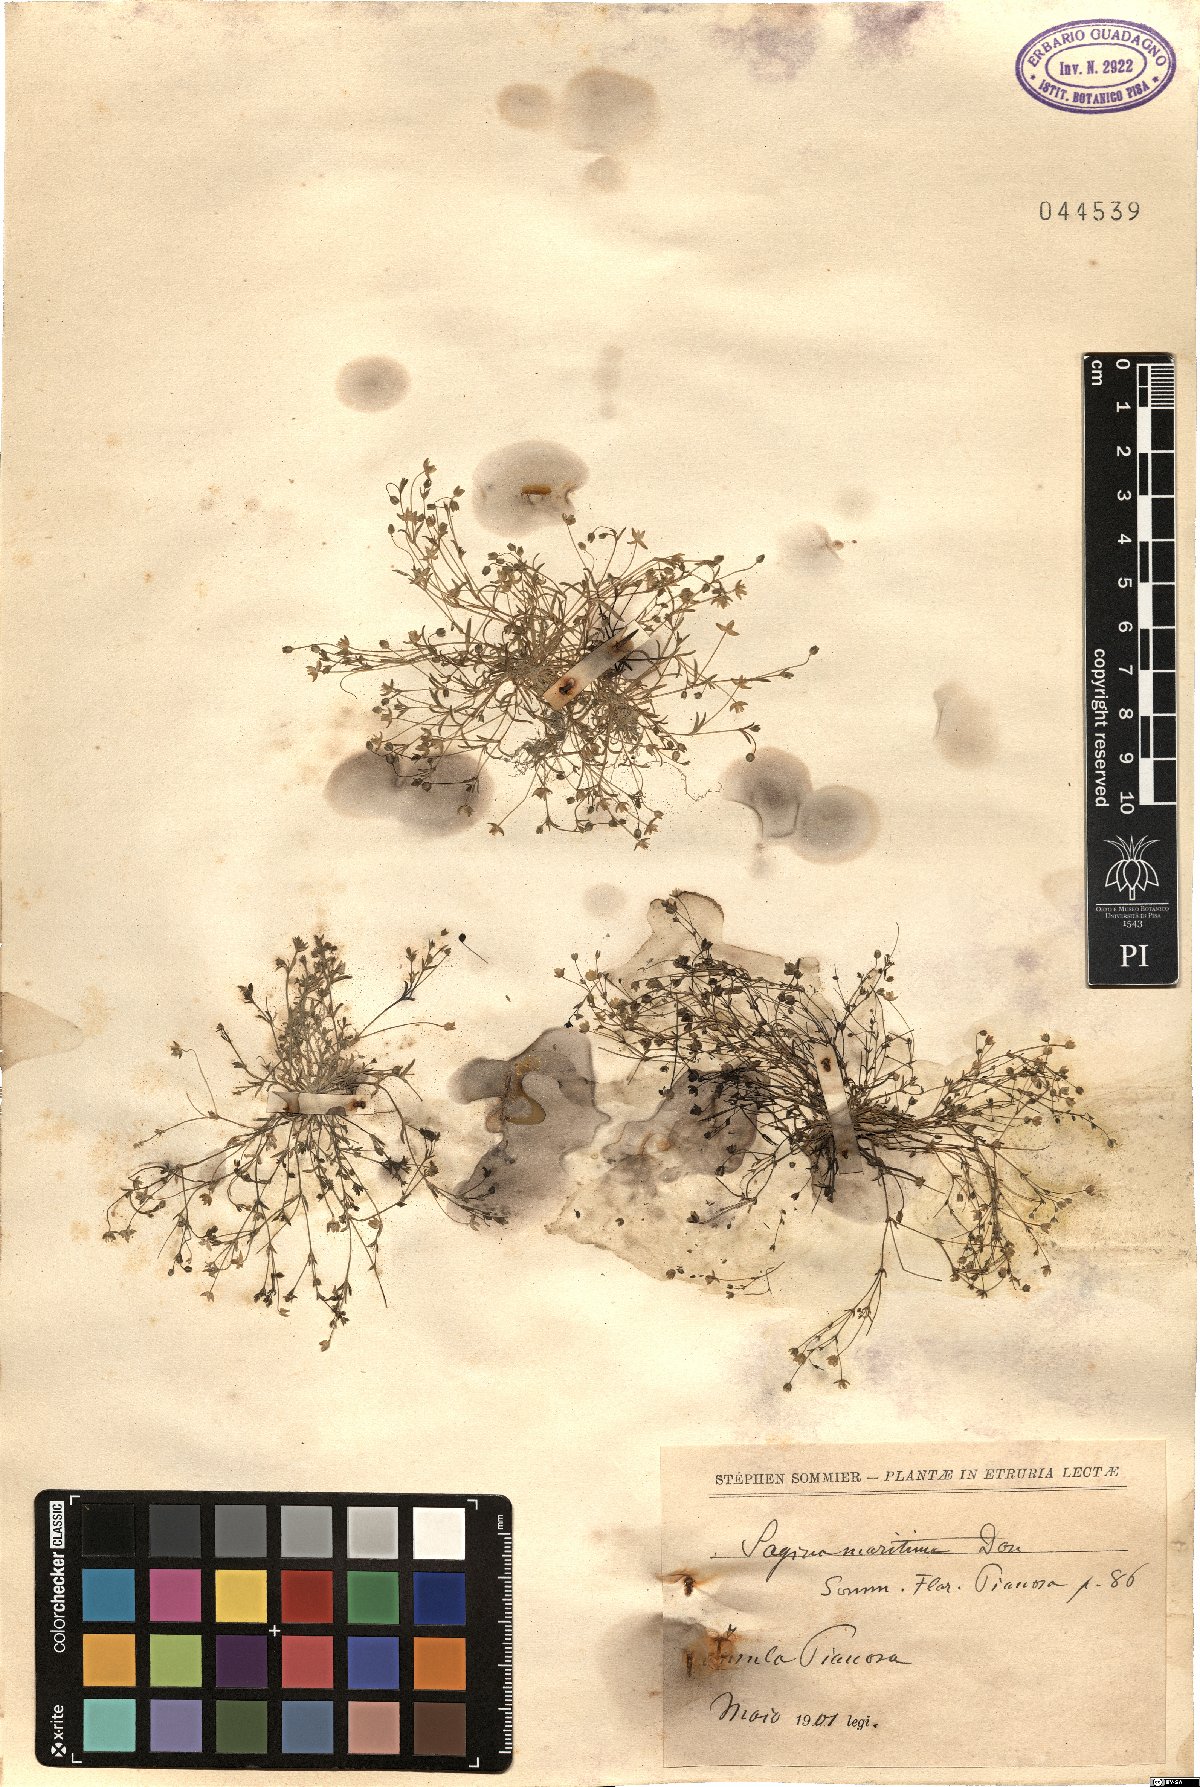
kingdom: Plantae
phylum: Tracheophyta
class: Magnoliopsida
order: Caryophyllales
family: Caryophyllaceae
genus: Sagina
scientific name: Sagina maritima
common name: Sea pearlwort
